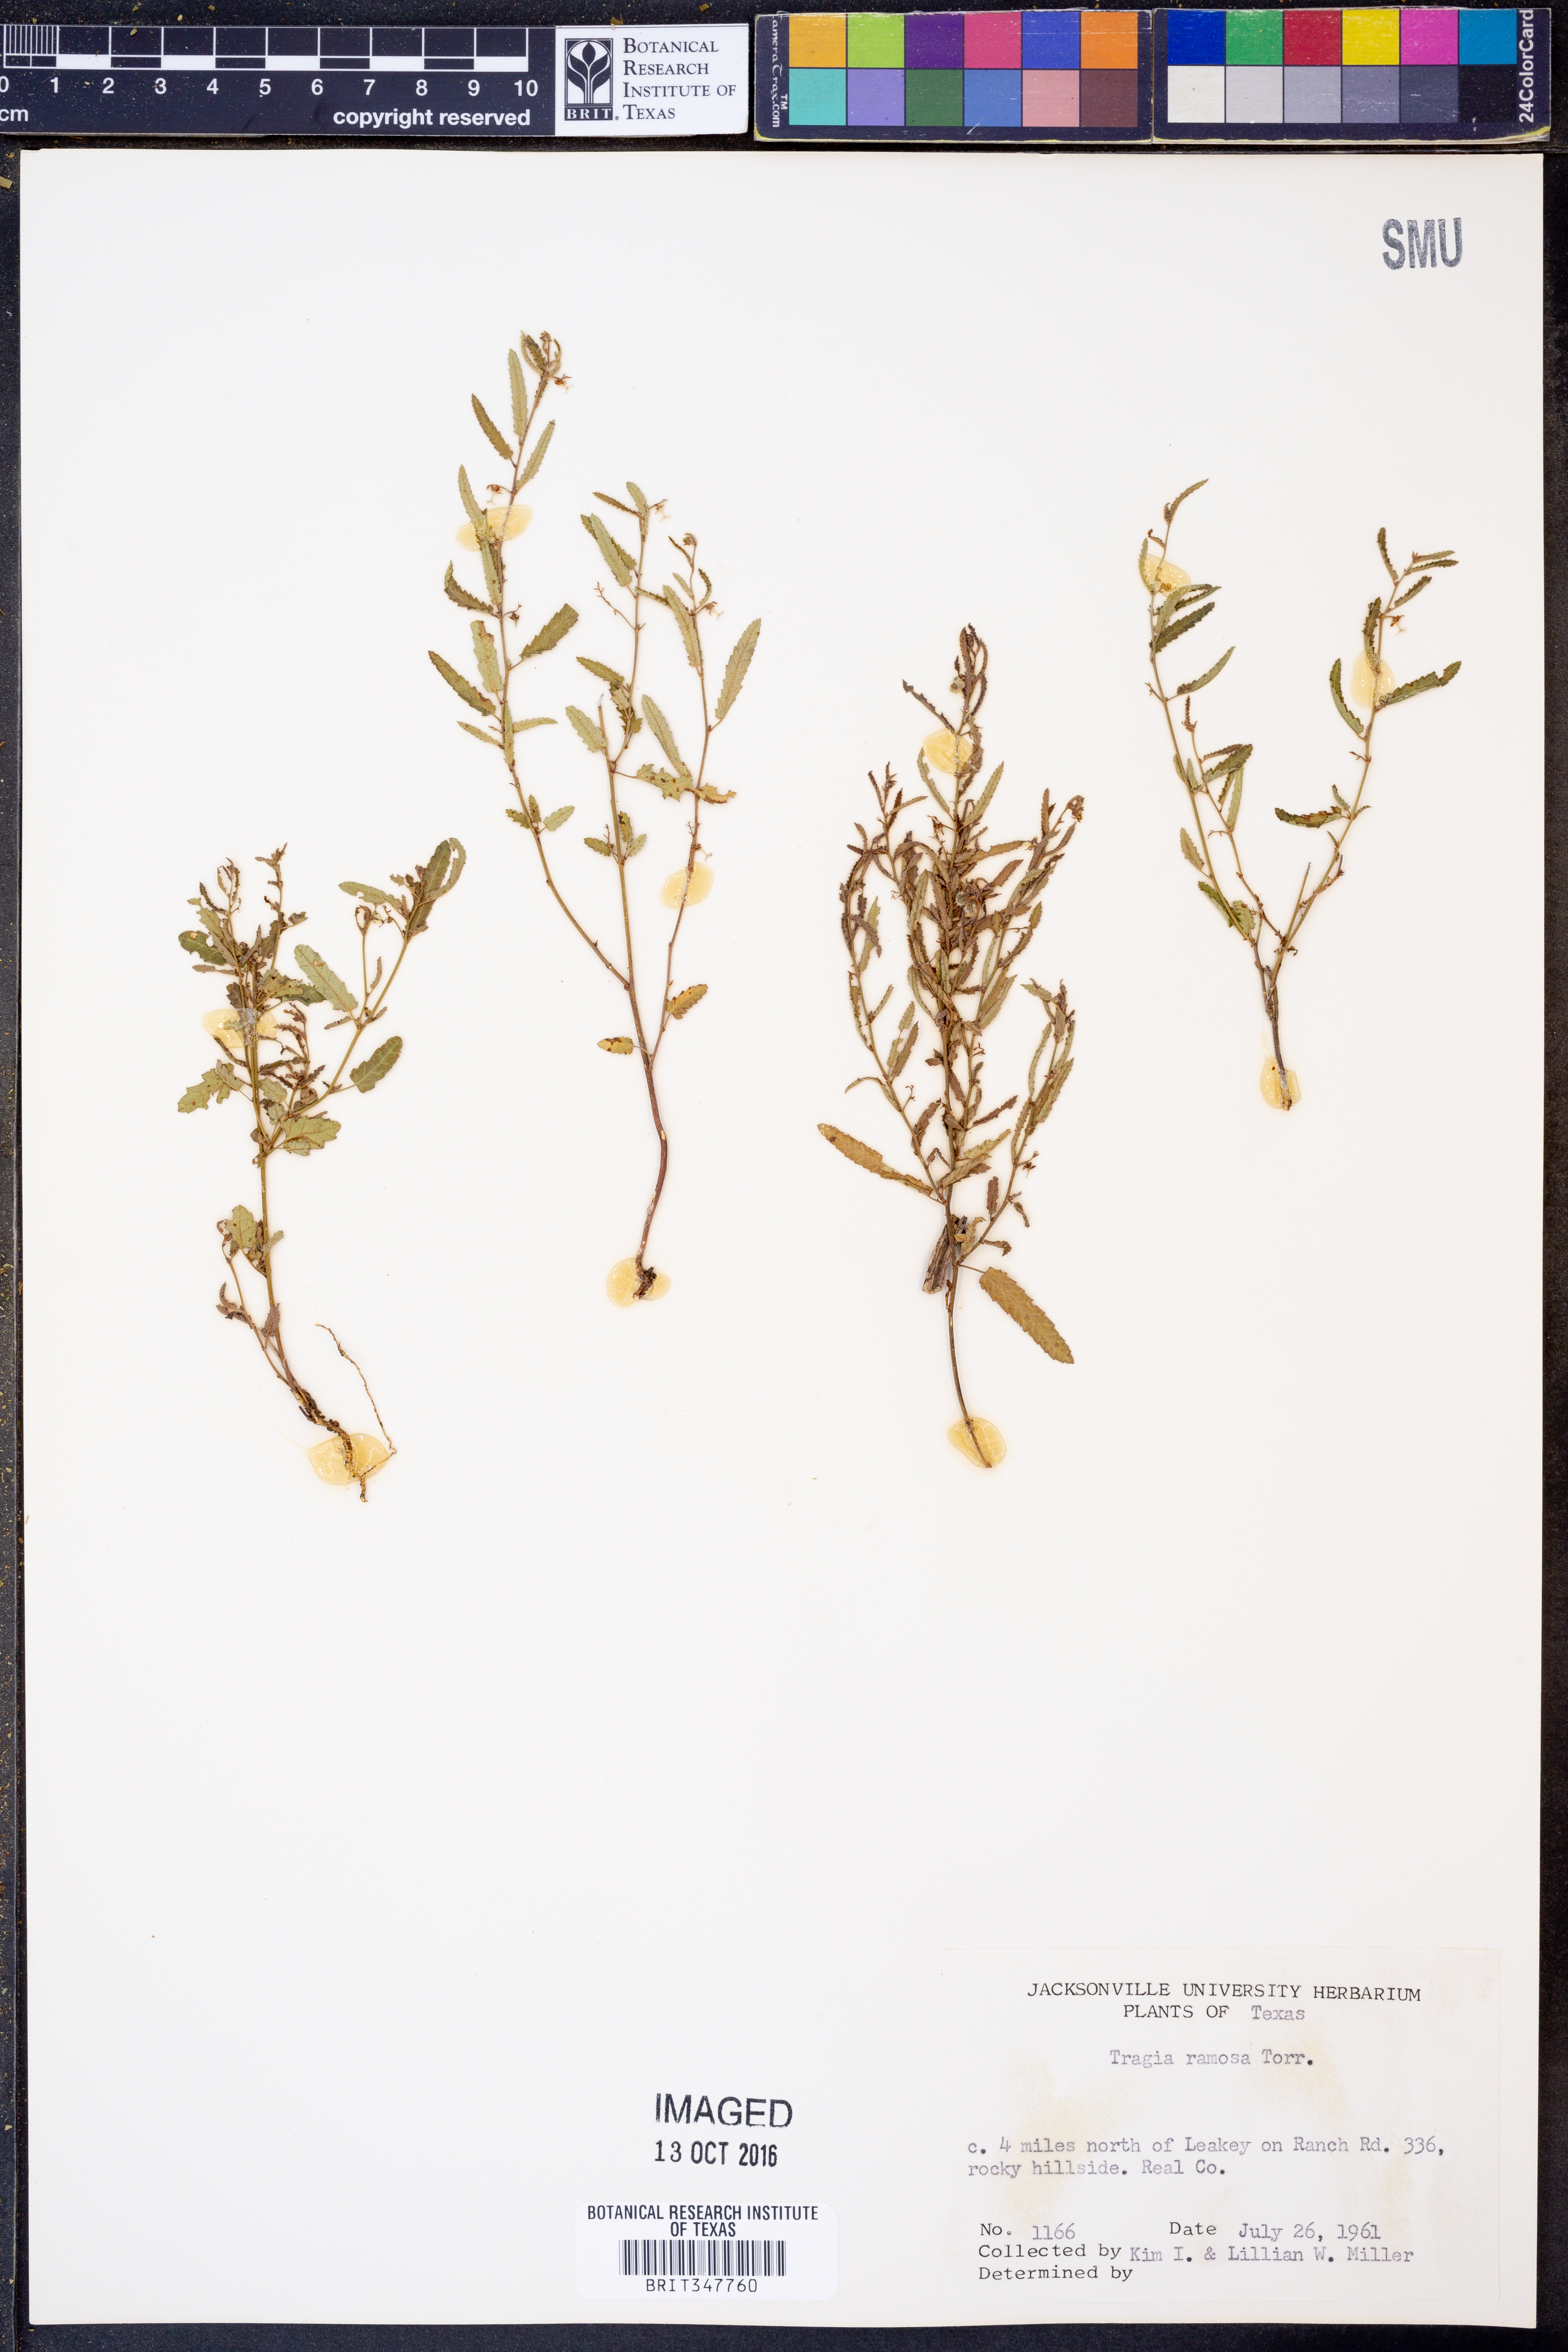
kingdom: Plantae
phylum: Tracheophyta
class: Magnoliopsida
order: Malpighiales
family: Euphorbiaceae
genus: Tragia
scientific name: Tragia ramosa
